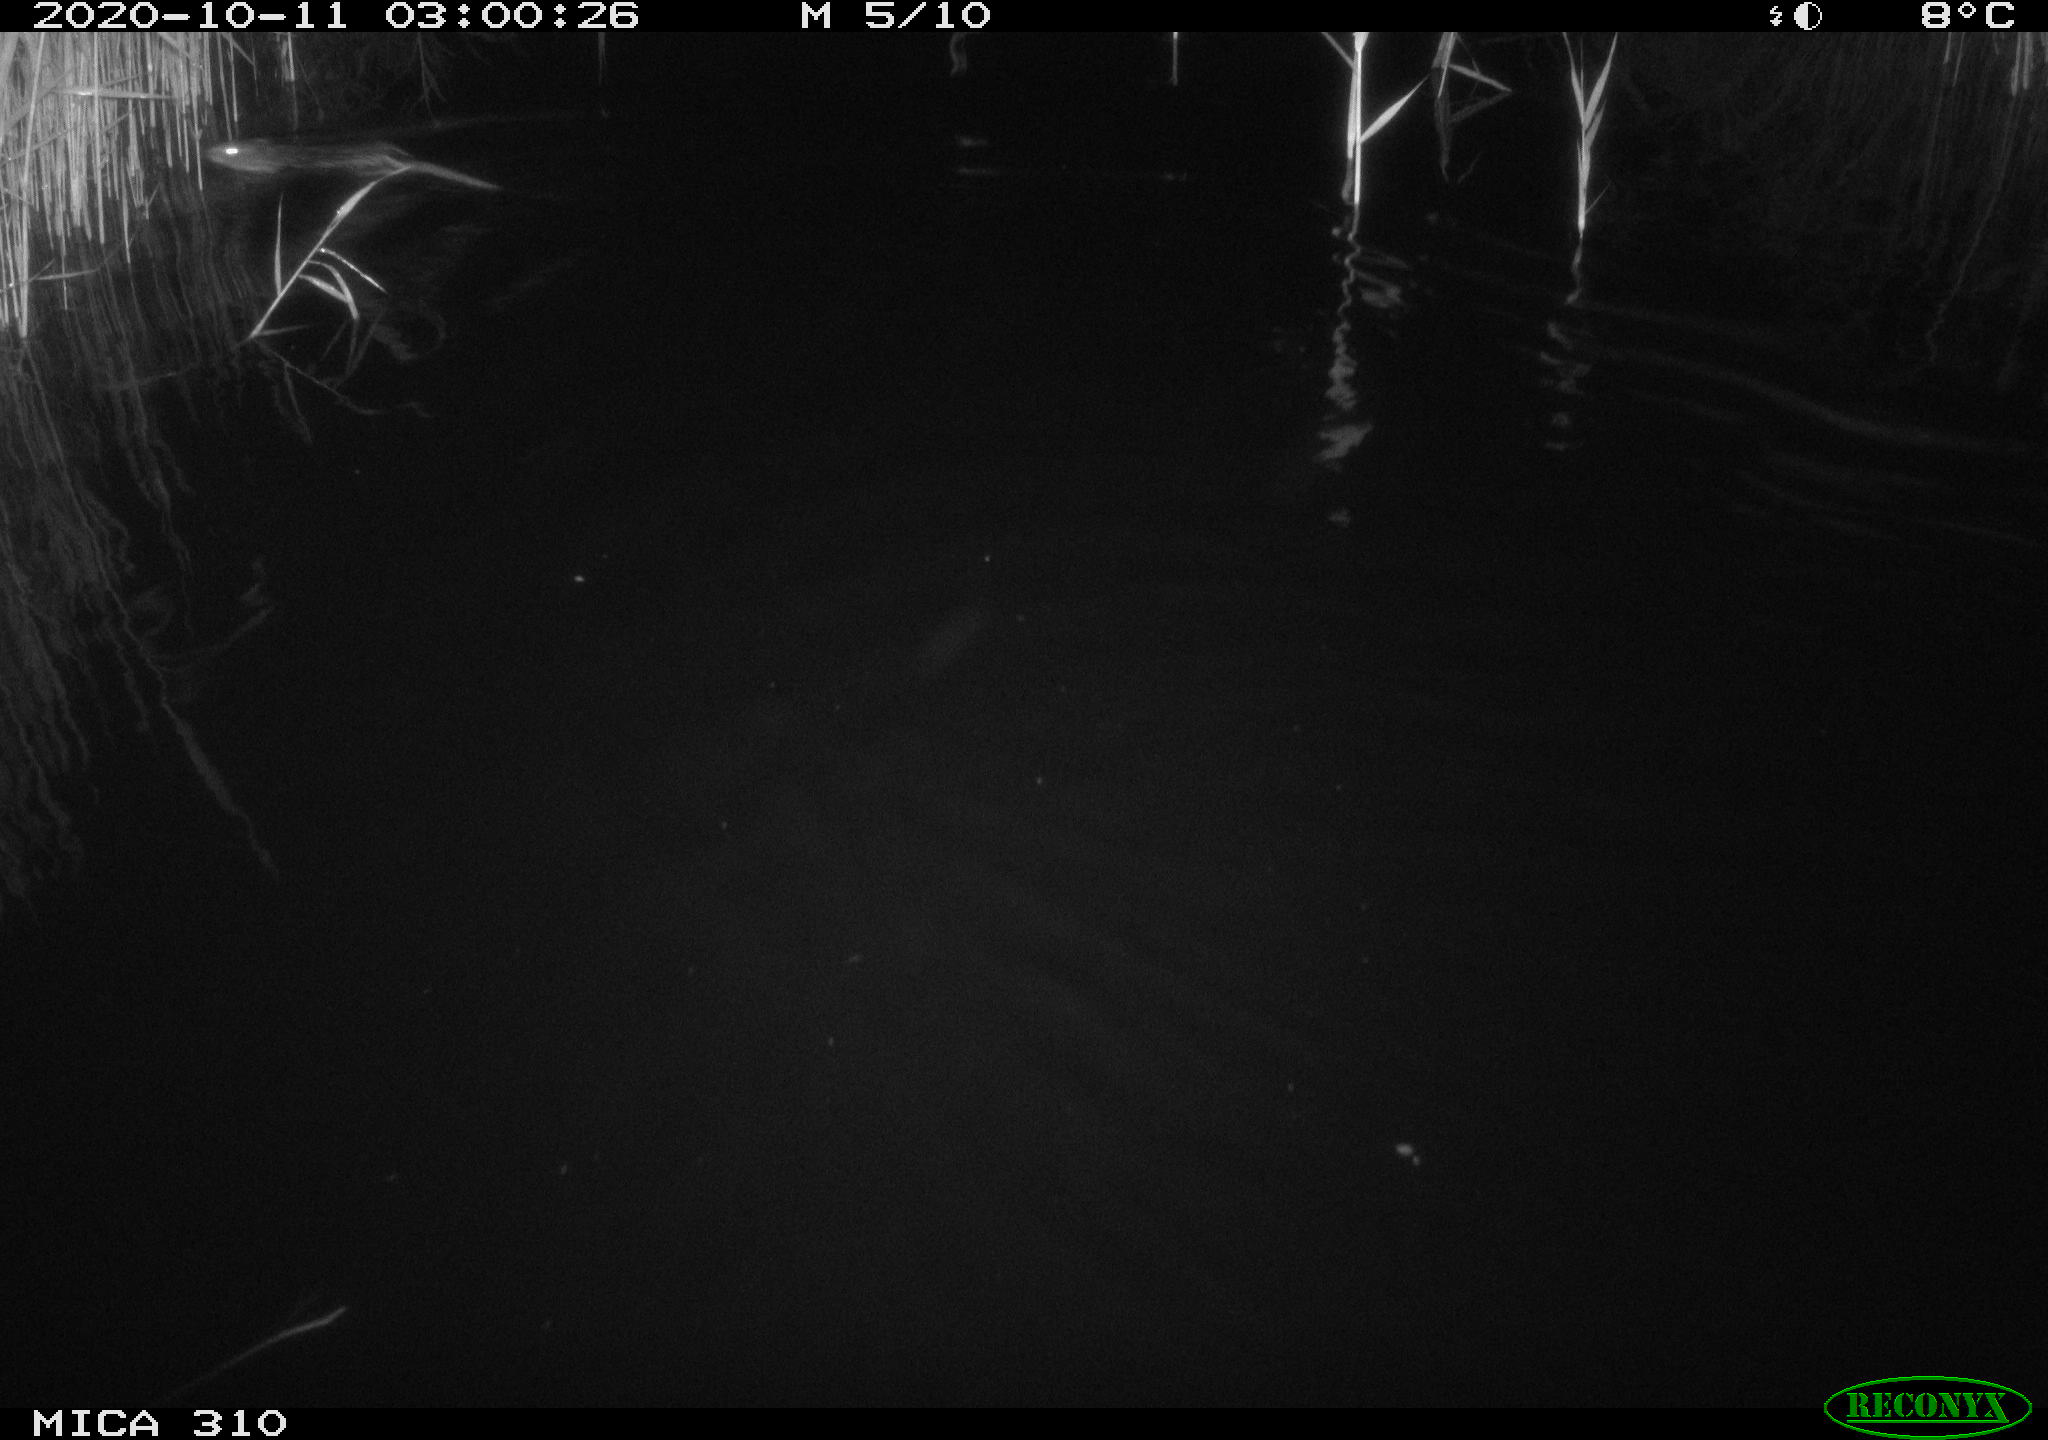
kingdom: Animalia
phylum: Chordata
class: Mammalia
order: Rodentia
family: Cricetidae
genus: Ondatra
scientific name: Ondatra zibethicus
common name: Muskrat
